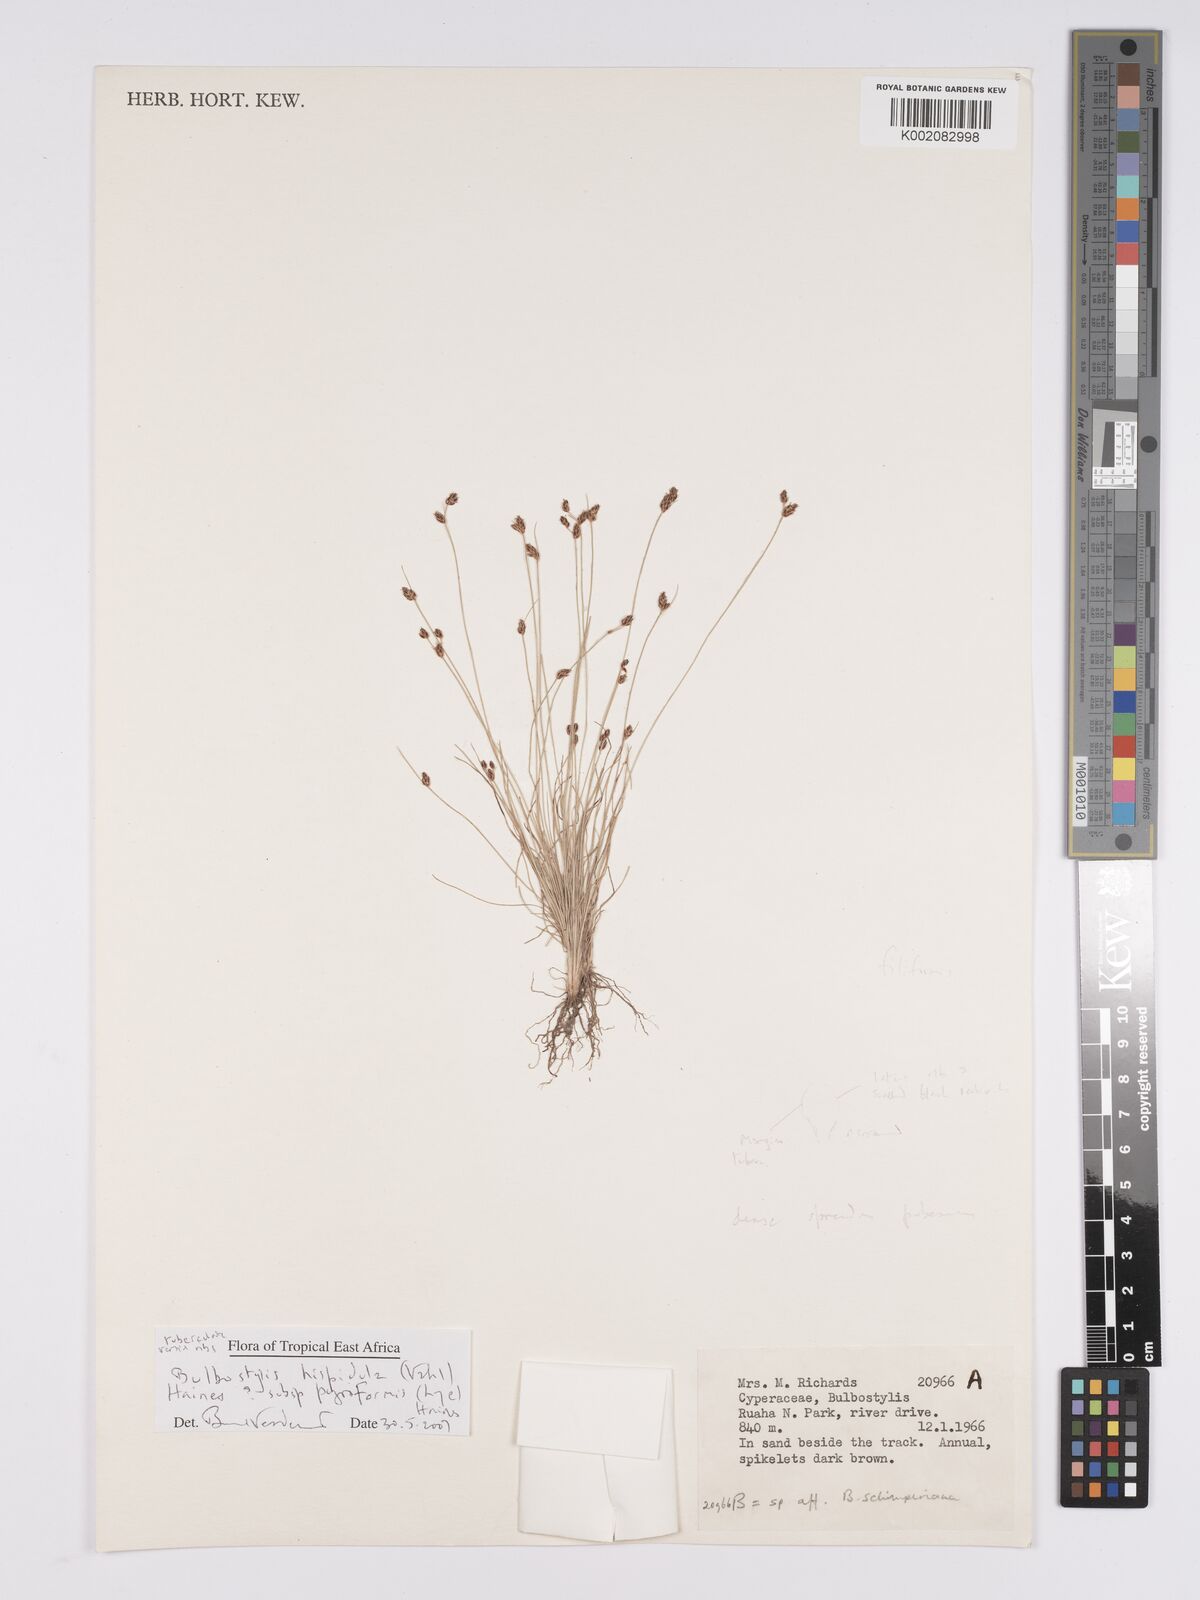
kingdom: Plantae
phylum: Tracheophyta
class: Liliopsida
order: Poales
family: Cyperaceae
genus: Bulbostylis
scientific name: Bulbostylis hispidula
